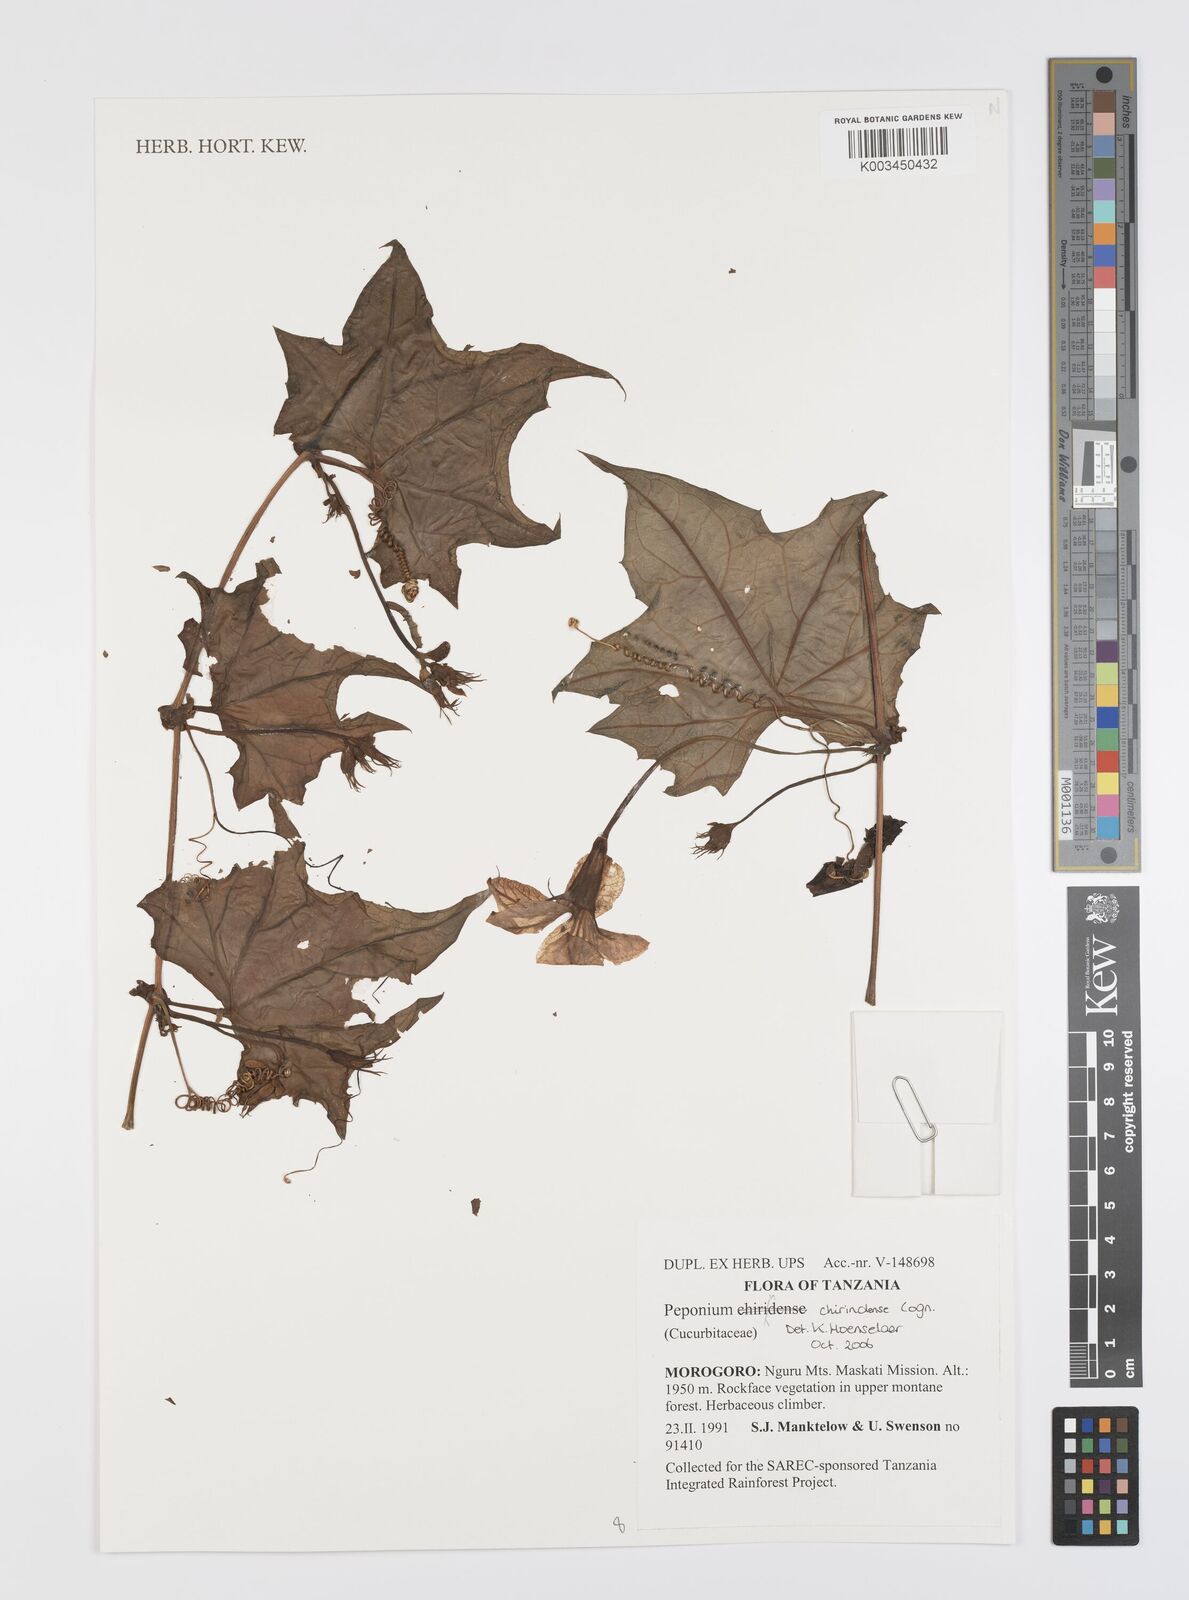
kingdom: Plantae
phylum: Tracheophyta
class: Magnoliopsida
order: Cucurbitales
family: Cucurbitaceae
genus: Peponium
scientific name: Peponium chirindense
